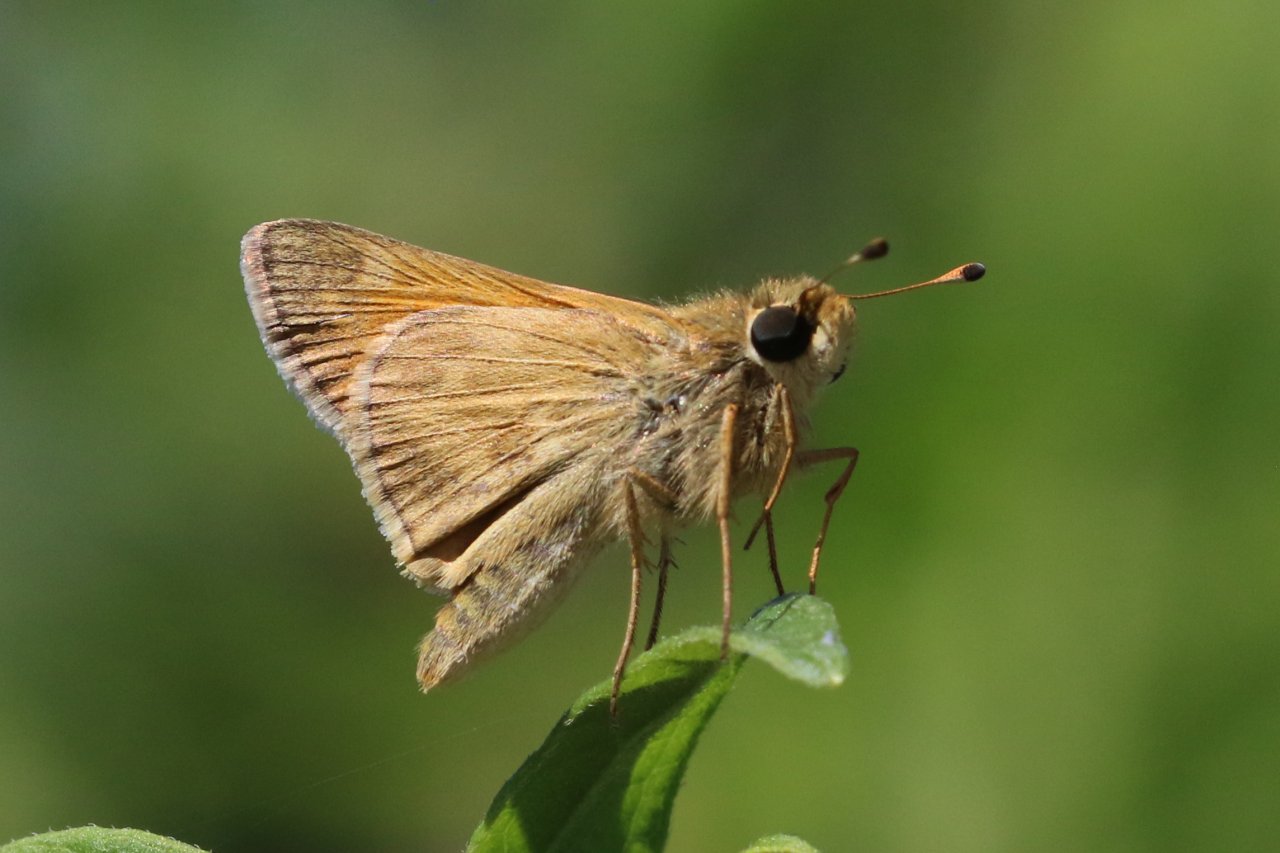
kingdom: Animalia
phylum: Arthropoda
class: Insecta
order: Lepidoptera
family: Hesperiidae
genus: Atalopedes
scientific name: Atalopedes campestris
